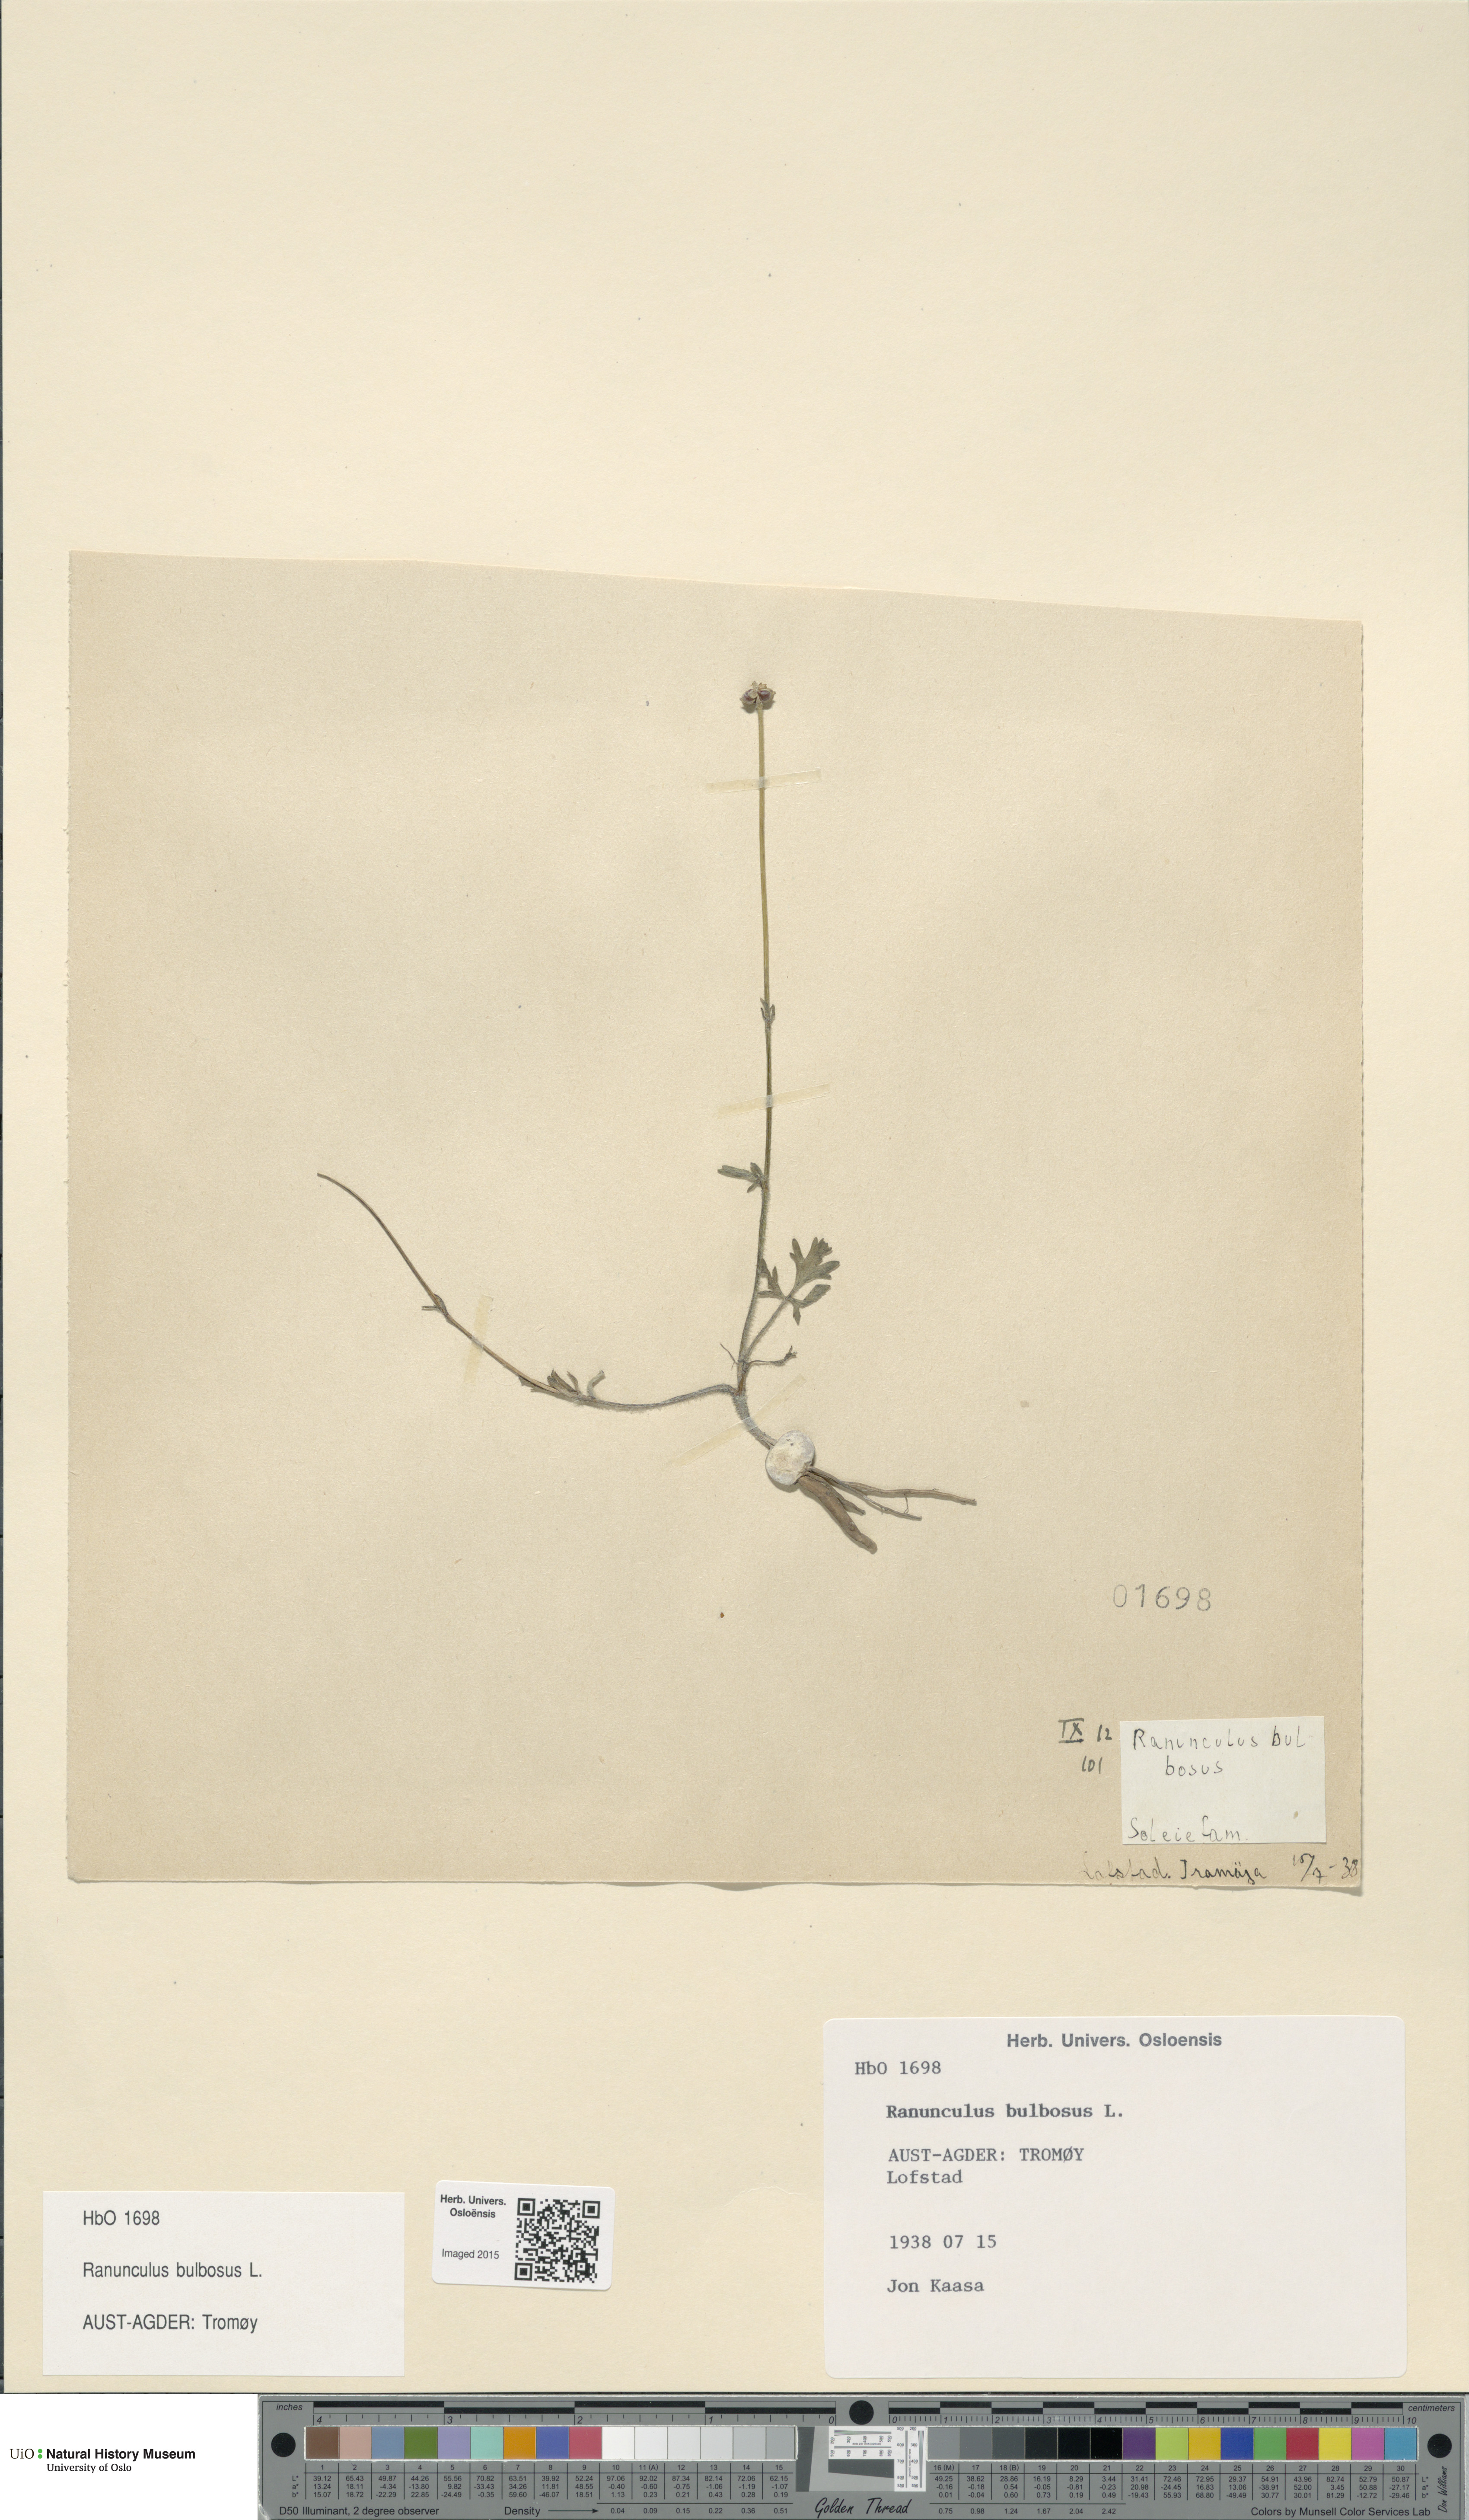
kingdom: Plantae
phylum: Tracheophyta
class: Magnoliopsida
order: Ranunculales
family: Ranunculaceae
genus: Ranunculus
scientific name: Ranunculus bulbosus
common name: Bulbous buttercup
